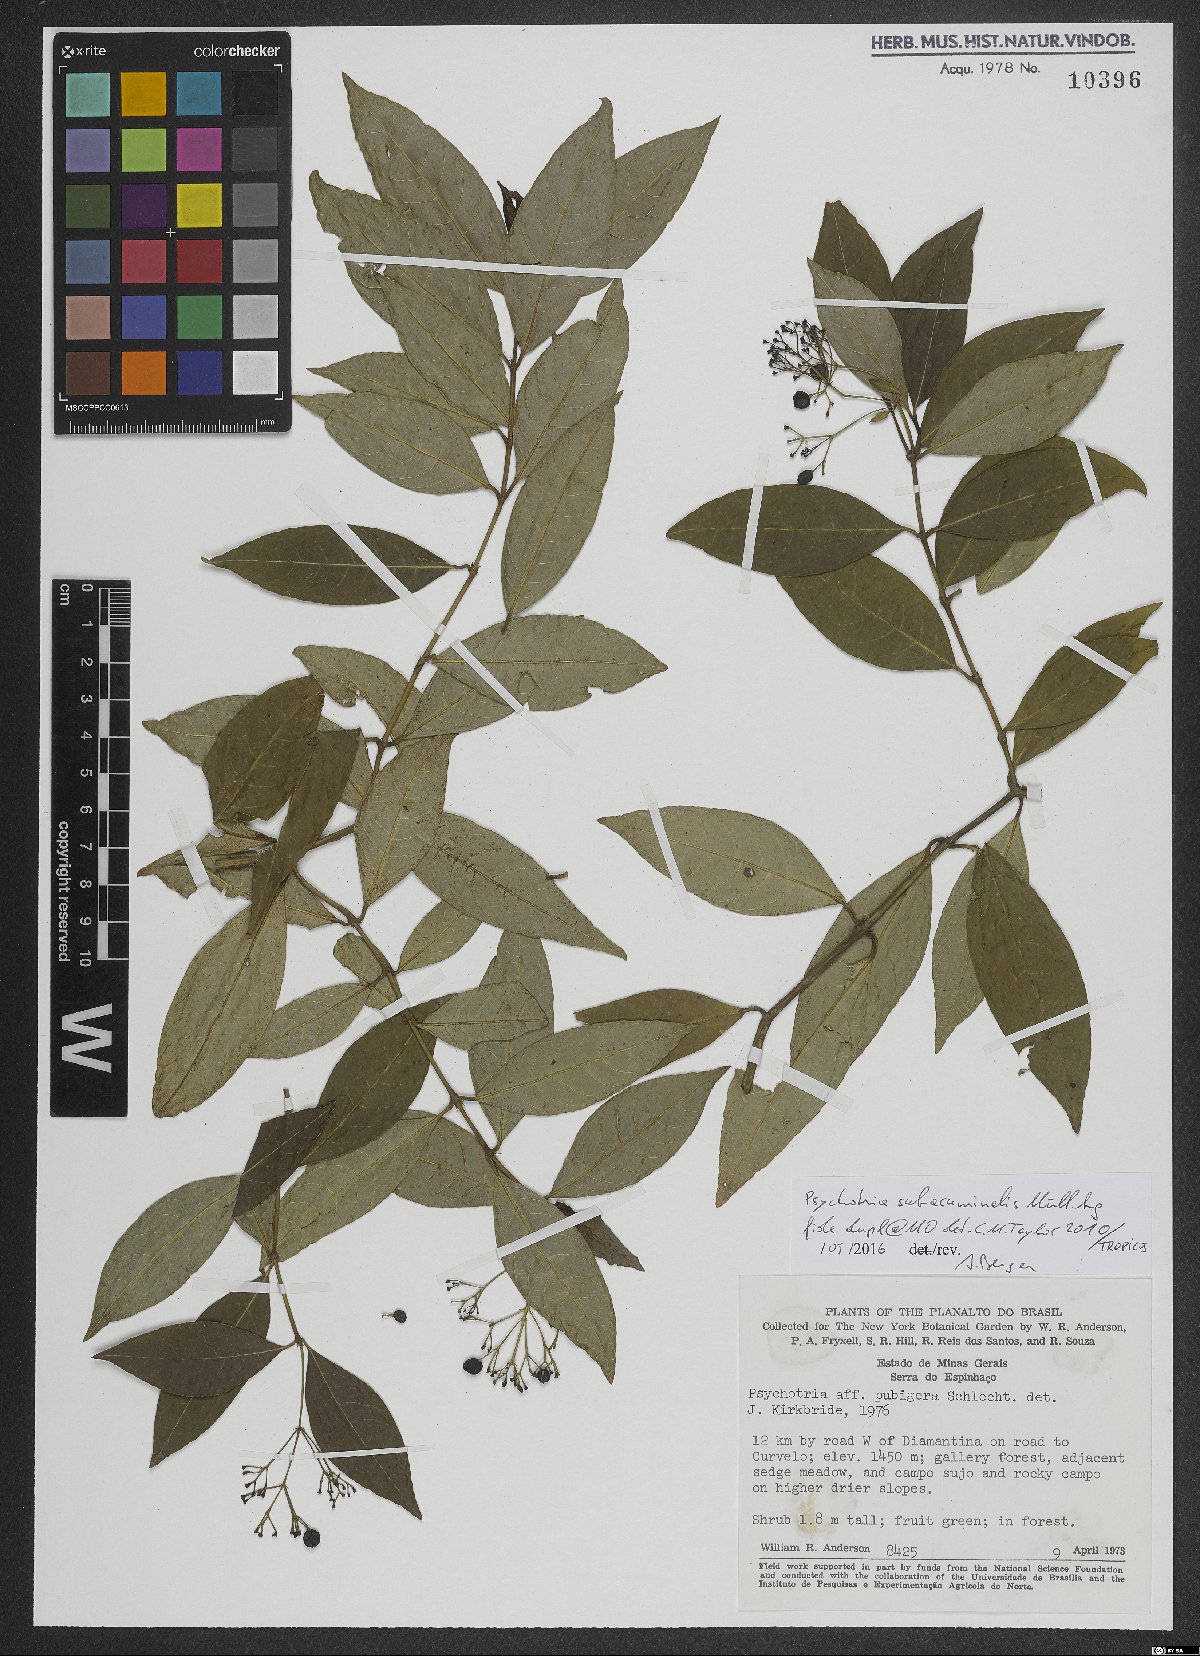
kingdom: Plantae
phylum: Tracheophyta
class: Magnoliopsida
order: Gentianales
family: Rubiaceae
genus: Psychotria
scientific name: Psychotria subacuminalis
